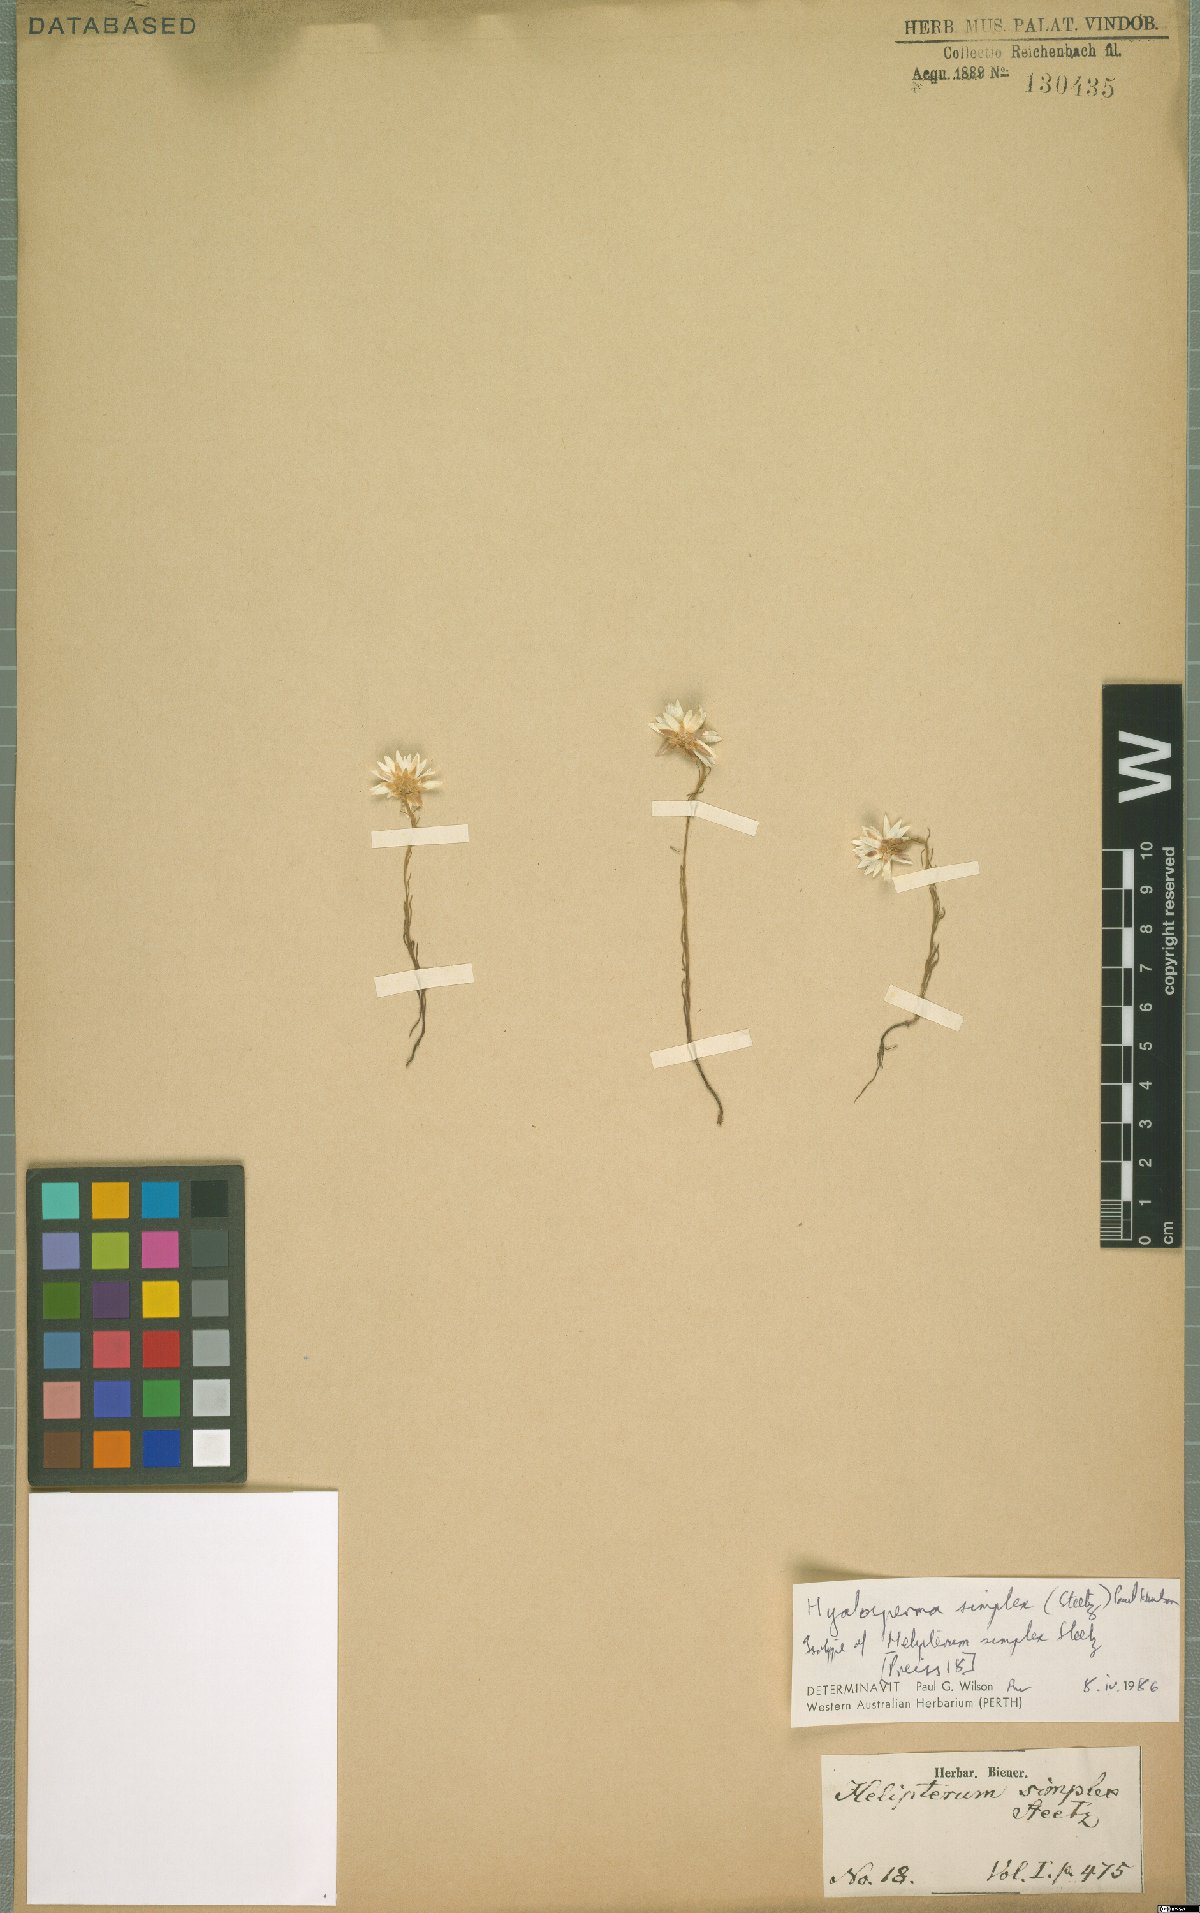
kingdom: Plantae
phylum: Tracheophyta
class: Magnoliopsida
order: Asterales
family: Asteraceae
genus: Hyalosperma
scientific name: Hyalosperma simplex
